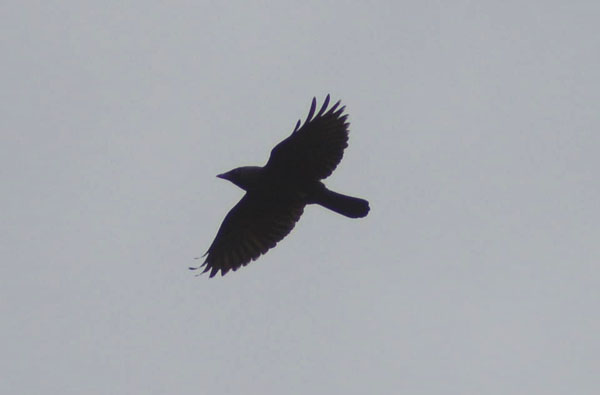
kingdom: Animalia
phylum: Chordata
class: Aves
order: Passeriformes
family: Corvidae
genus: Coloeus
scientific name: Coloeus monedula
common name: Western jackdaw
